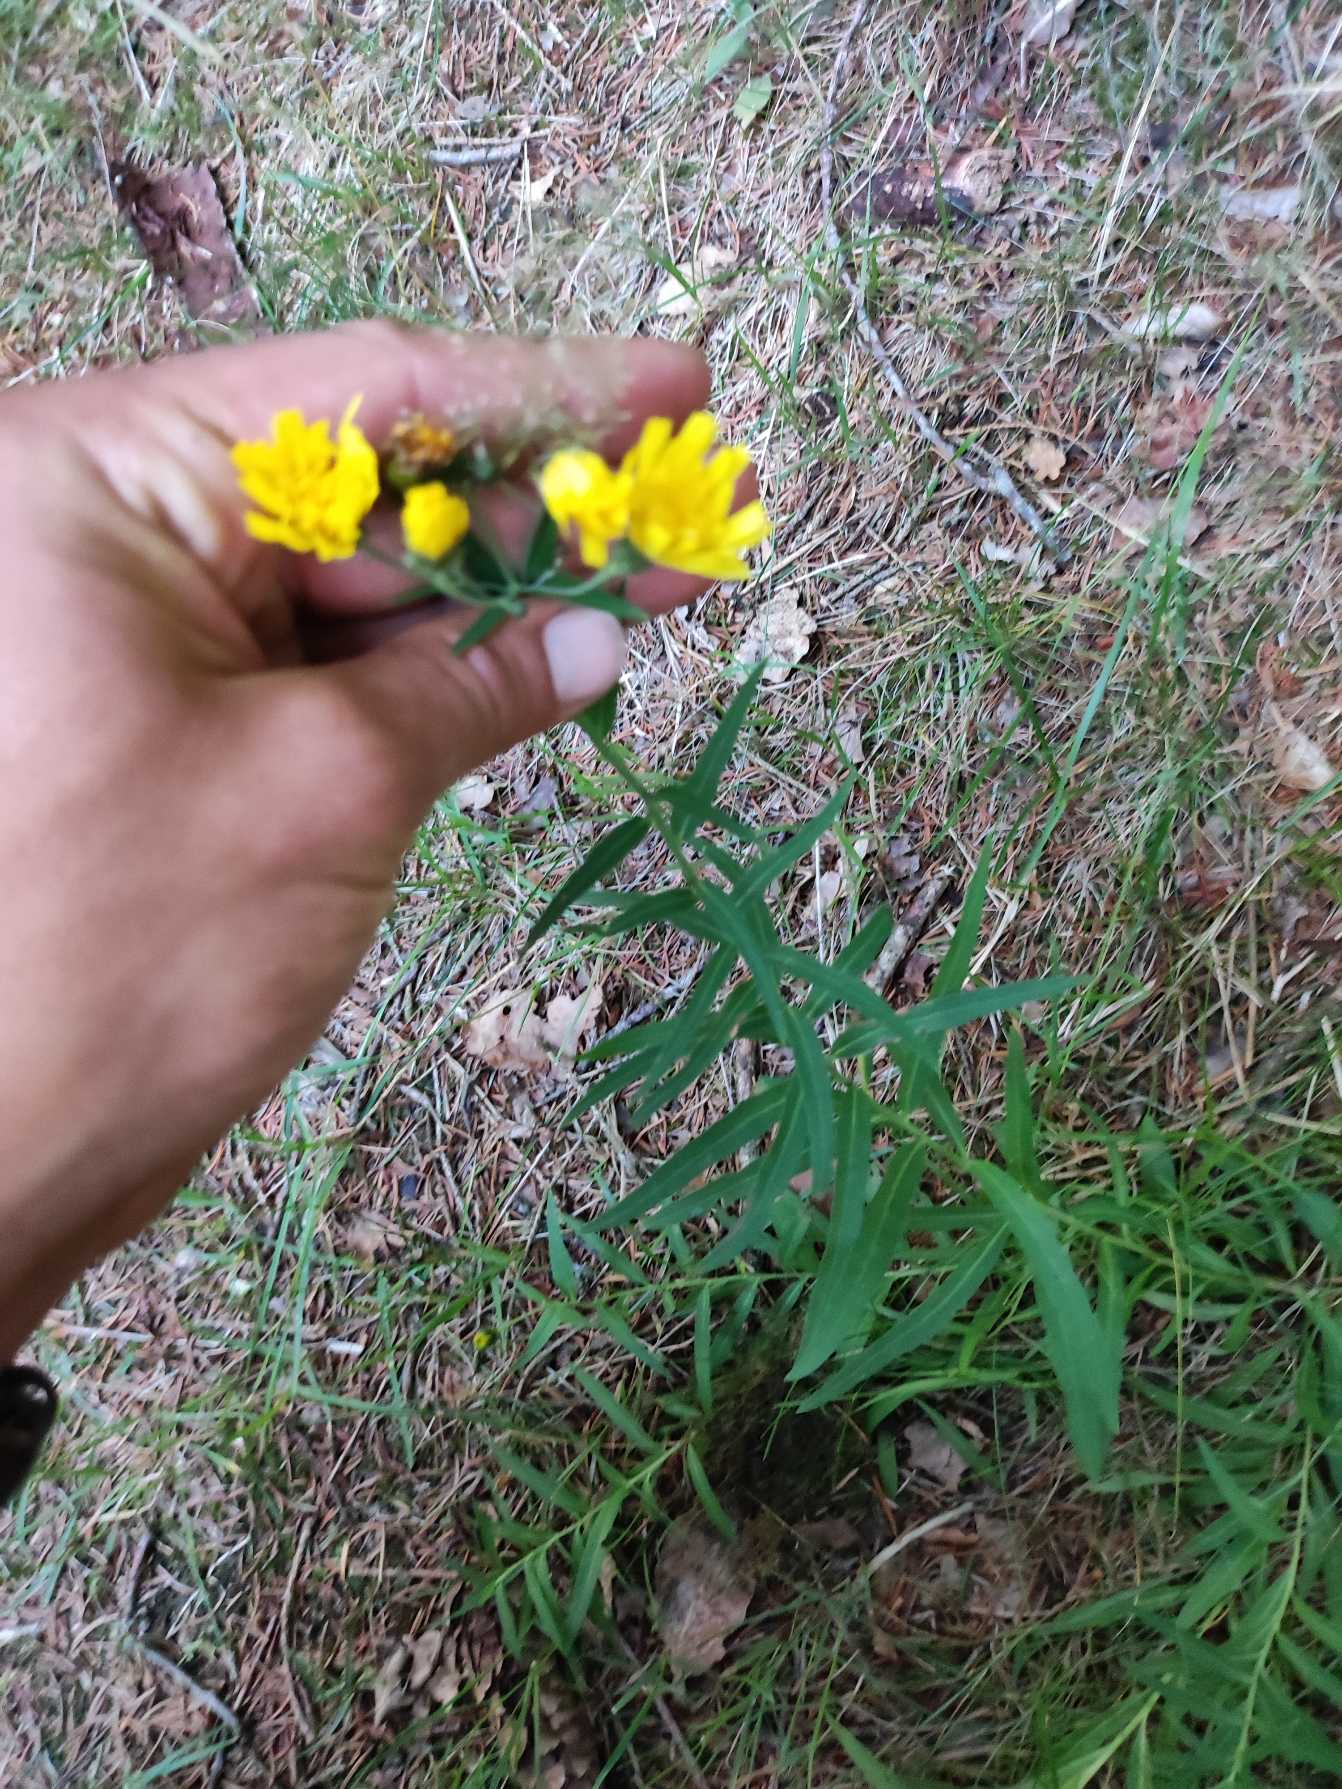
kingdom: Plantae
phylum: Tracheophyta
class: Magnoliopsida
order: Asterales
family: Asteraceae
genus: Hieracium
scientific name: Hieracium umbellatum
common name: Smalbladet høgeurt
